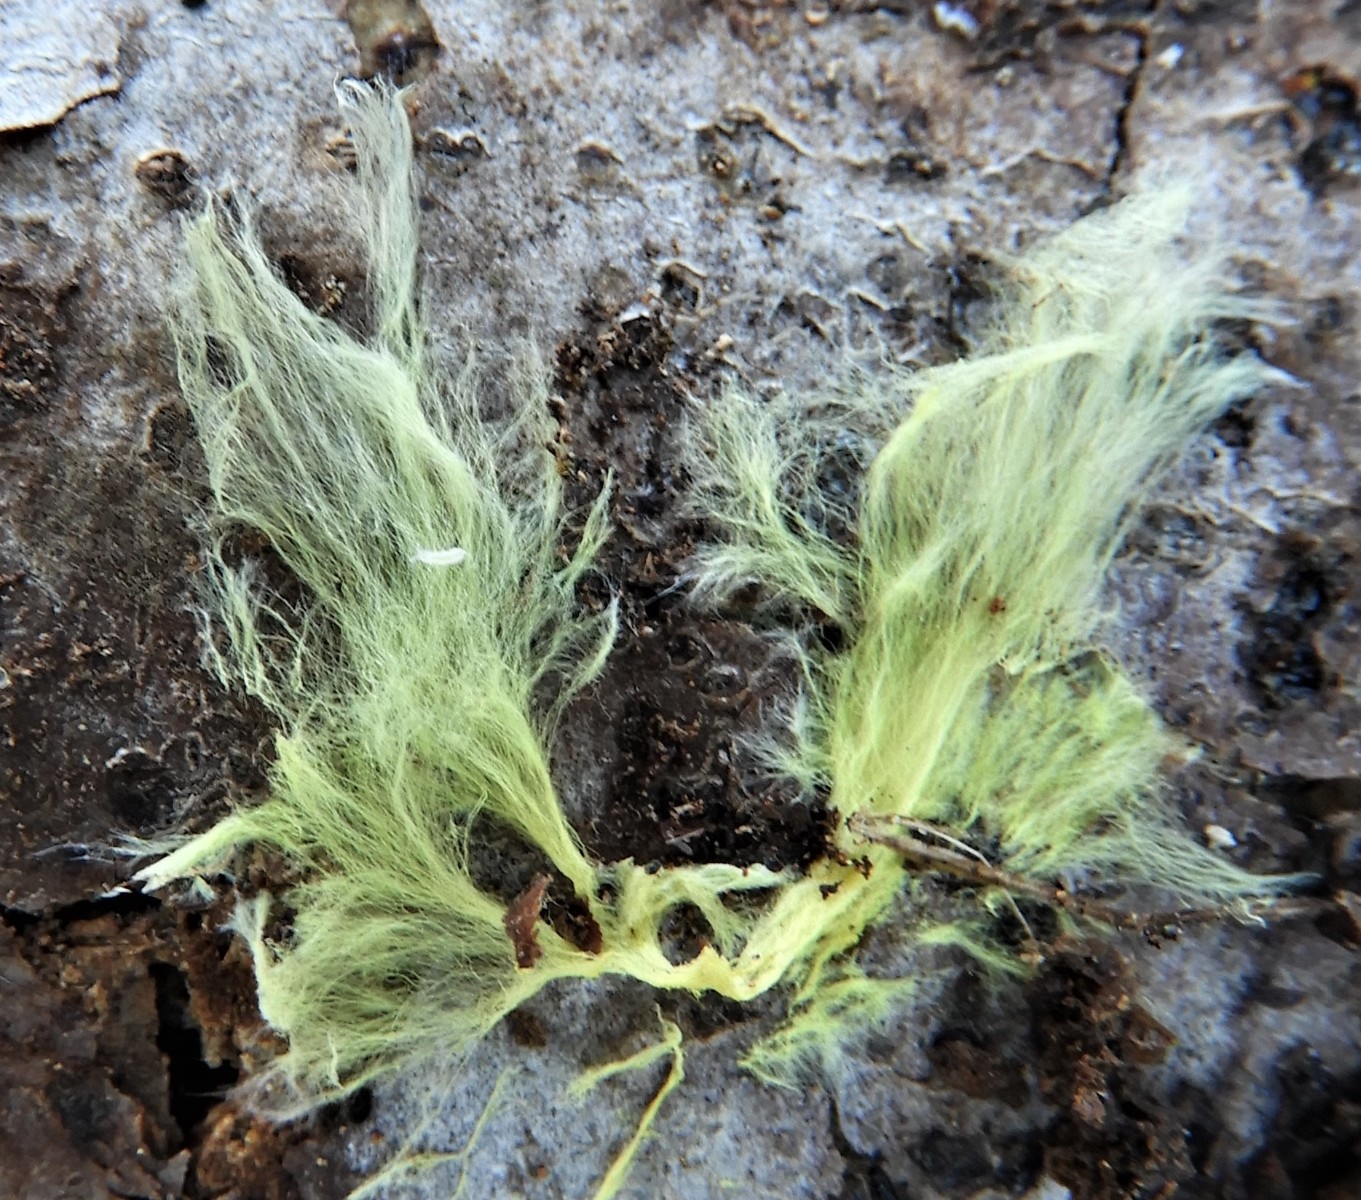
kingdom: Fungi
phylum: Basidiomycota
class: Agaricomycetes
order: Russulales
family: Xenasmataceae
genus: Xenasmatella
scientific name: Xenasmatella vaga
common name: svovl-strenghinde
